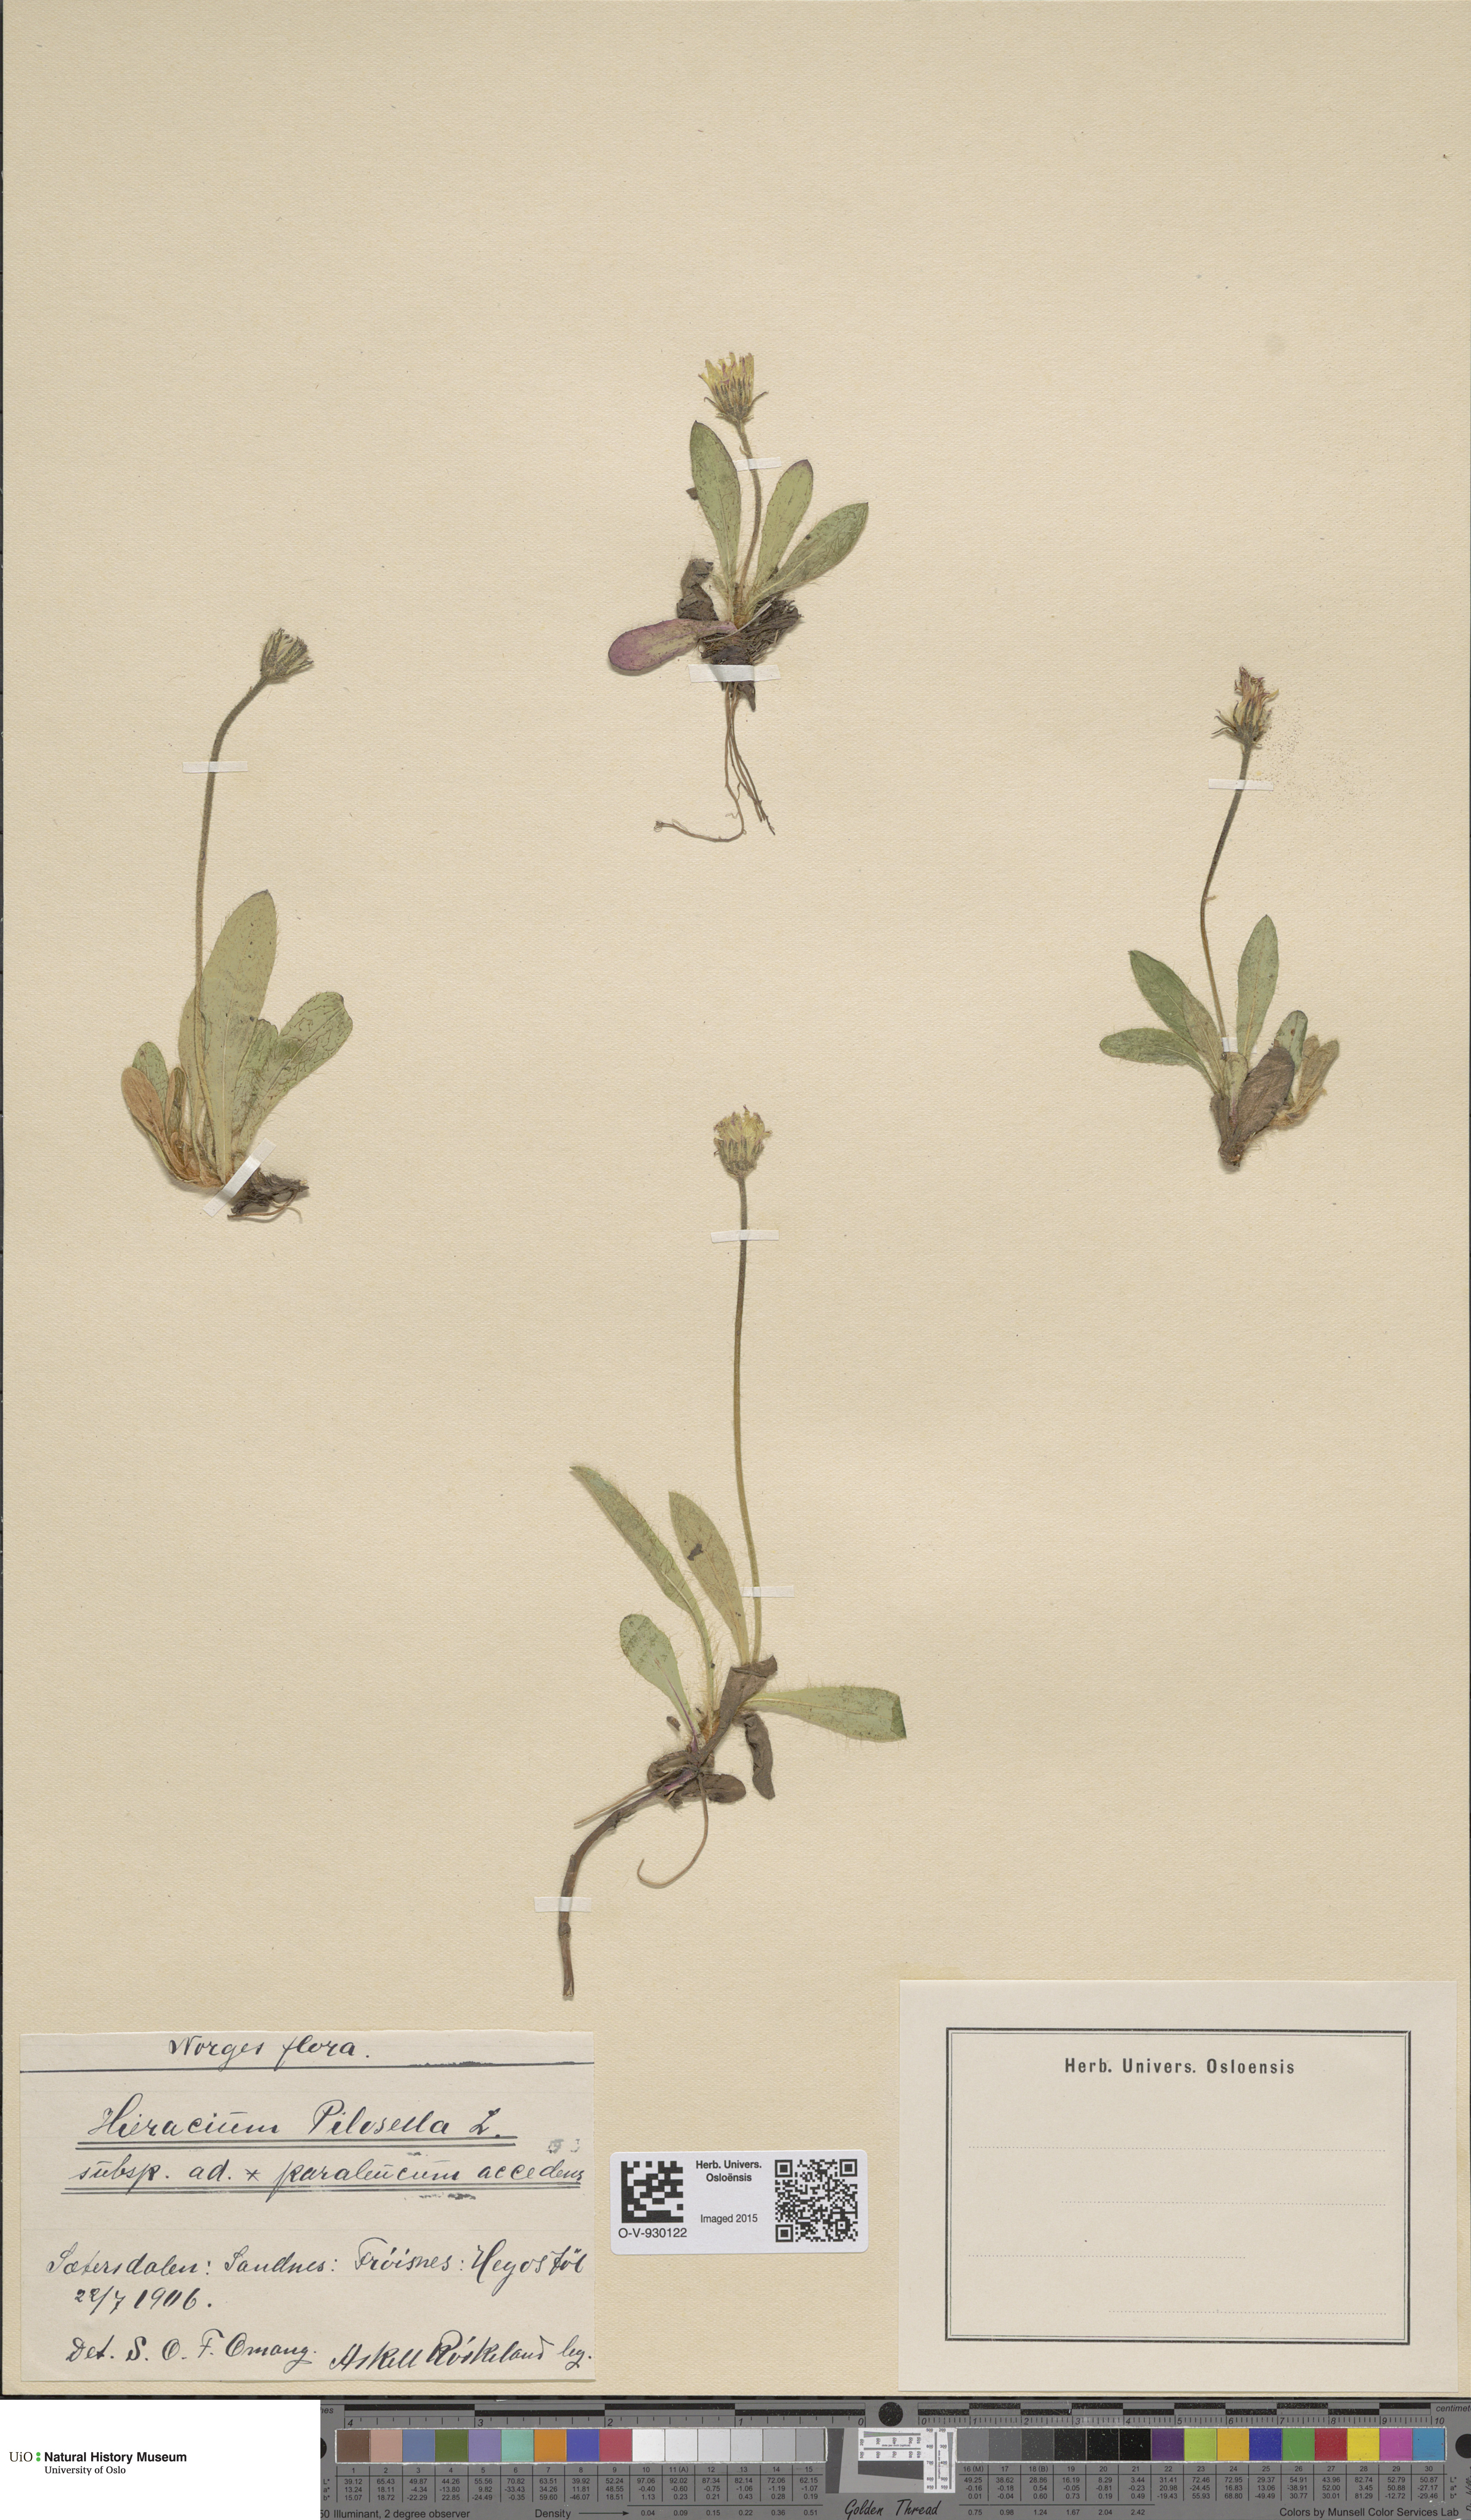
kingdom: Plantae
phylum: Tracheophyta
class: Magnoliopsida
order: Asterales
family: Asteraceae
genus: Pilosella
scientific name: Pilosella officinarum
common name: Mouse-ear hawkweed
